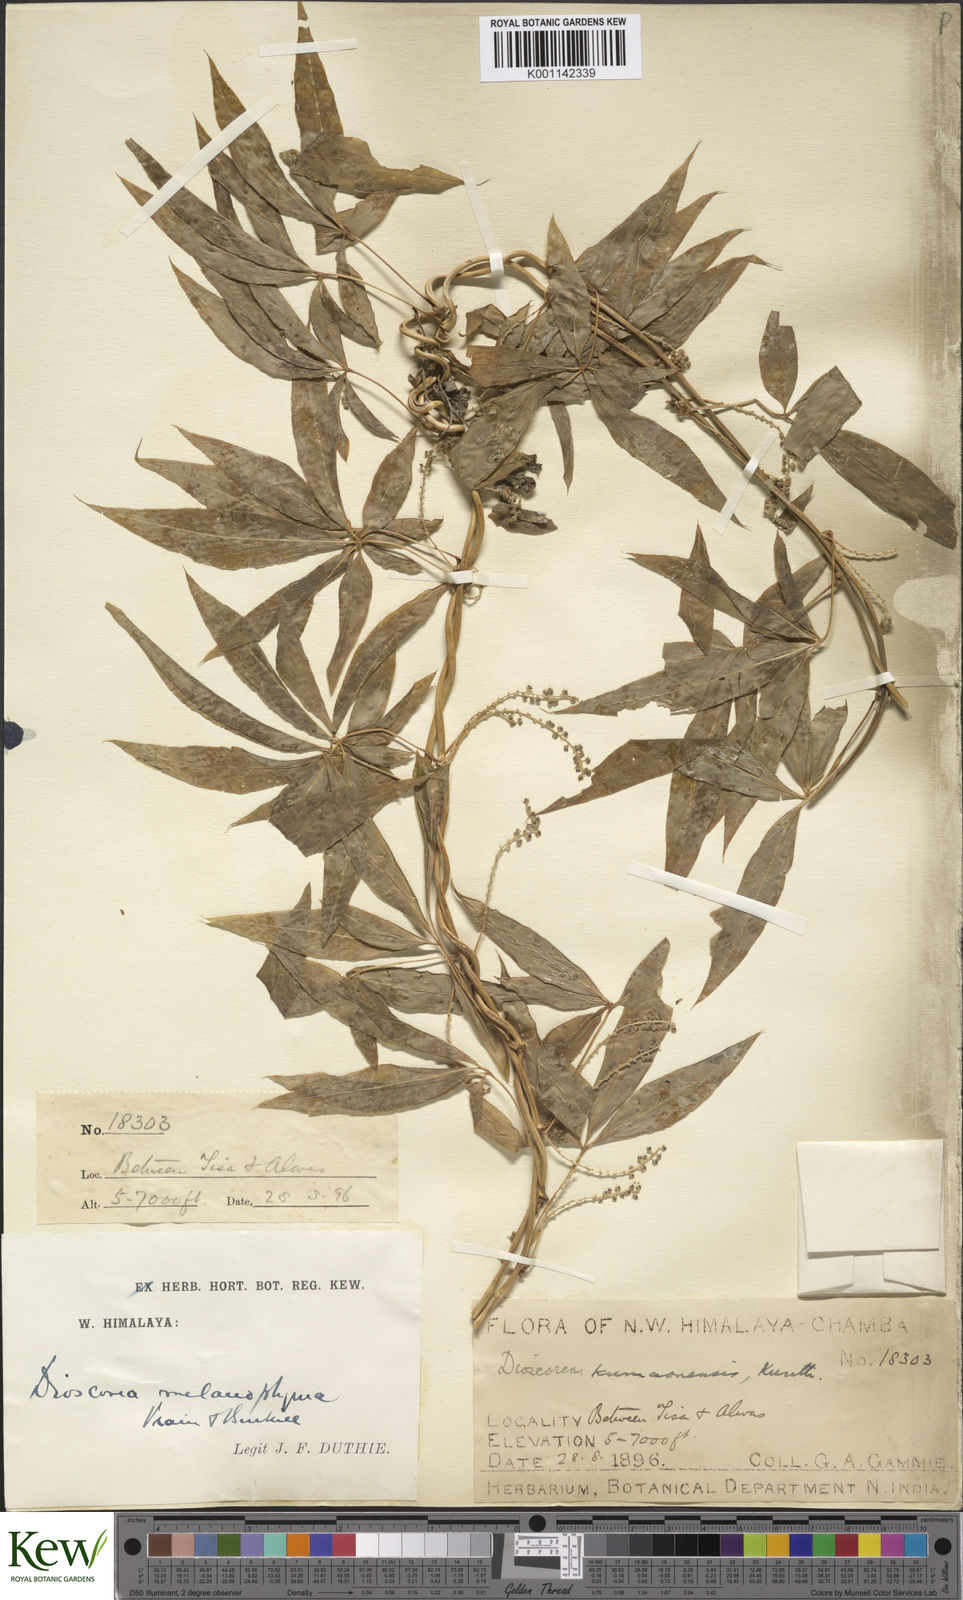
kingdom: Plantae
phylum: Tracheophyta
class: Liliopsida
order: Dioscoreales
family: Dioscoreaceae
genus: Dioscorea
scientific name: Dioscorea melanophyma
